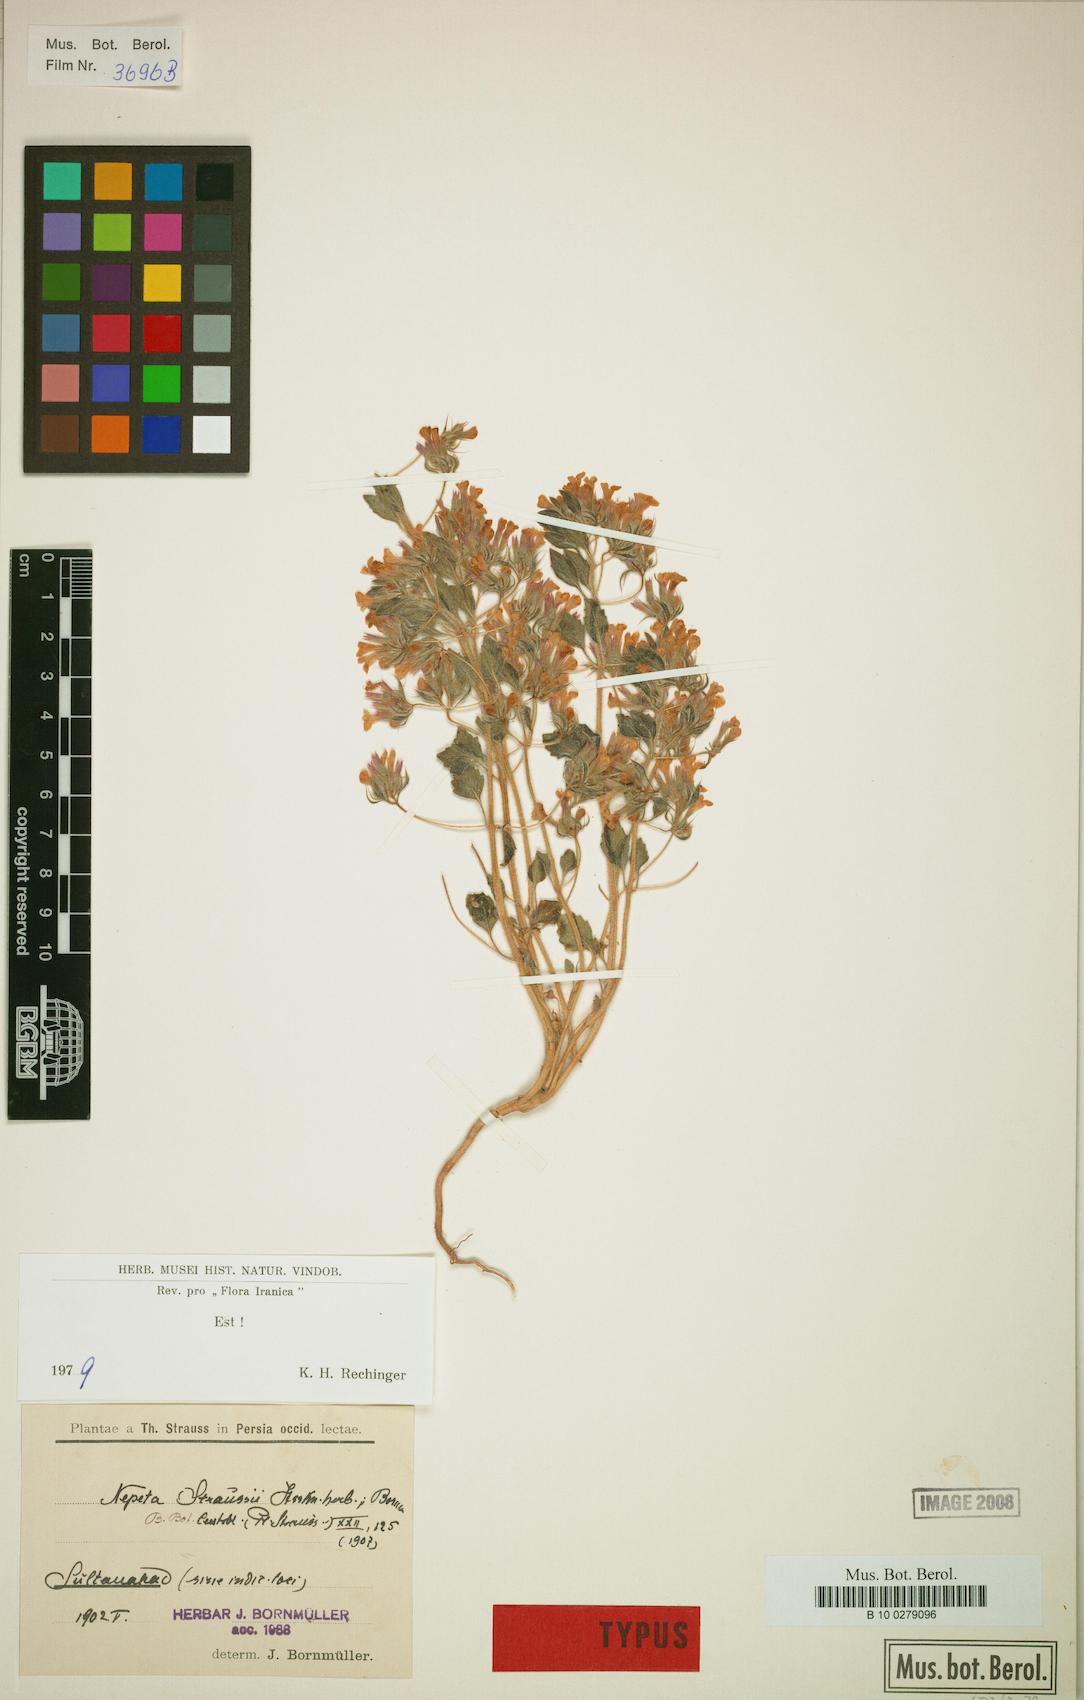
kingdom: Plantae
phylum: Tracheophyta
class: Magnoliopsida
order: Lamiales
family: Lamiaceae
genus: Nepeta
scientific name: Nepeta straussii
